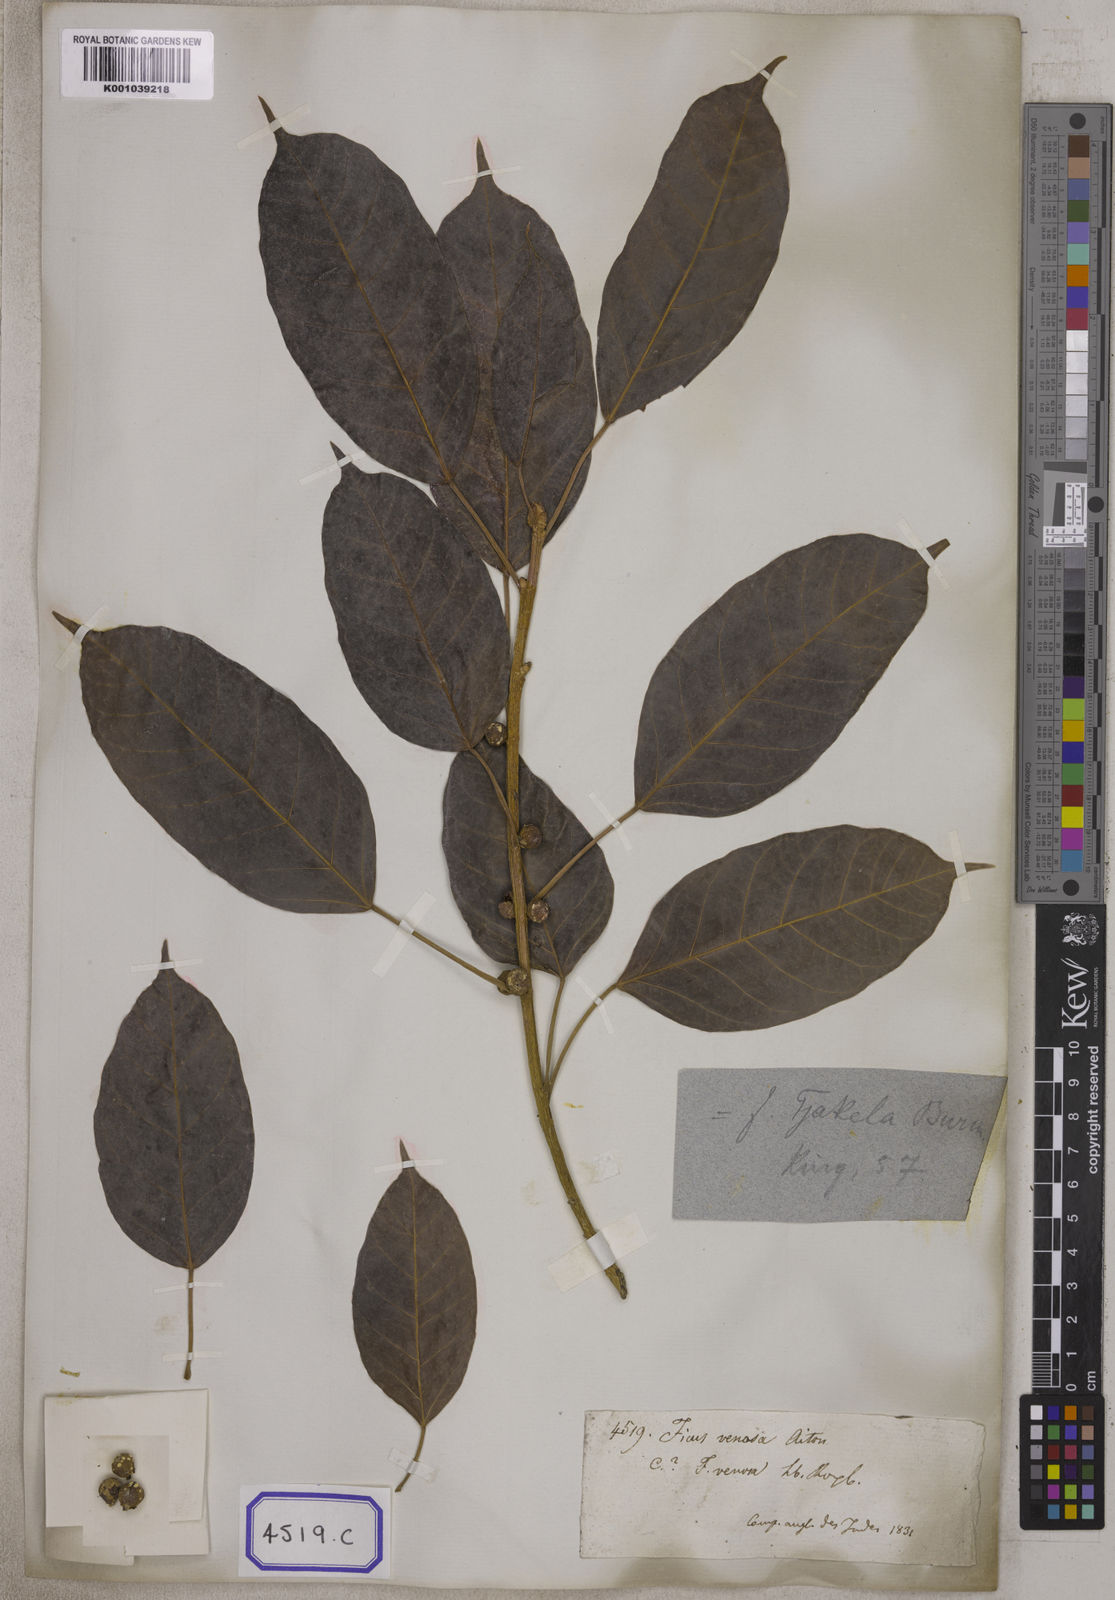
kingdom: Plantae
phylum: Tracheophyta
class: Magnoliopsida
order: Rosales
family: Moraceae
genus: Ficus
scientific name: Ficus
